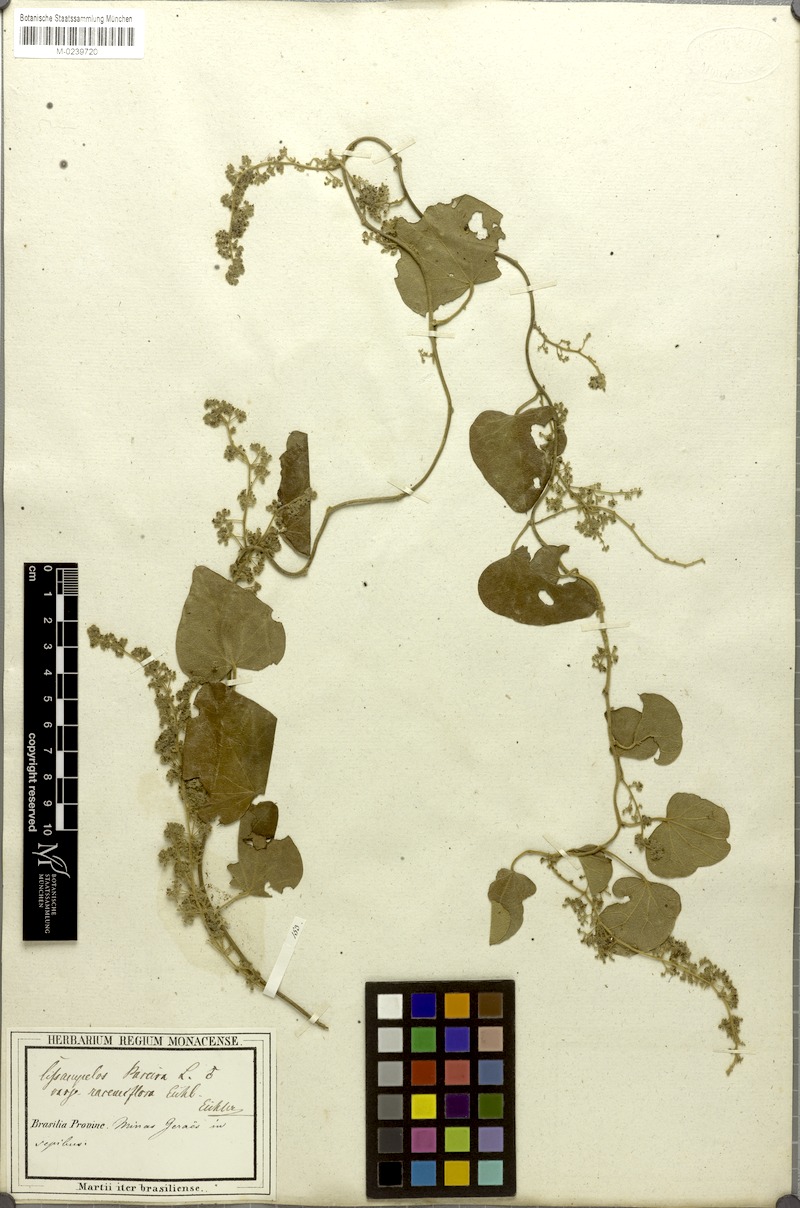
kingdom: Plantae
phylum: Tracheophyta
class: Magnoliopsida
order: Ranunculales
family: Menispermaceae
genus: Cissampelos
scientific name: Cissampelos pareira
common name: Velvetleaf
